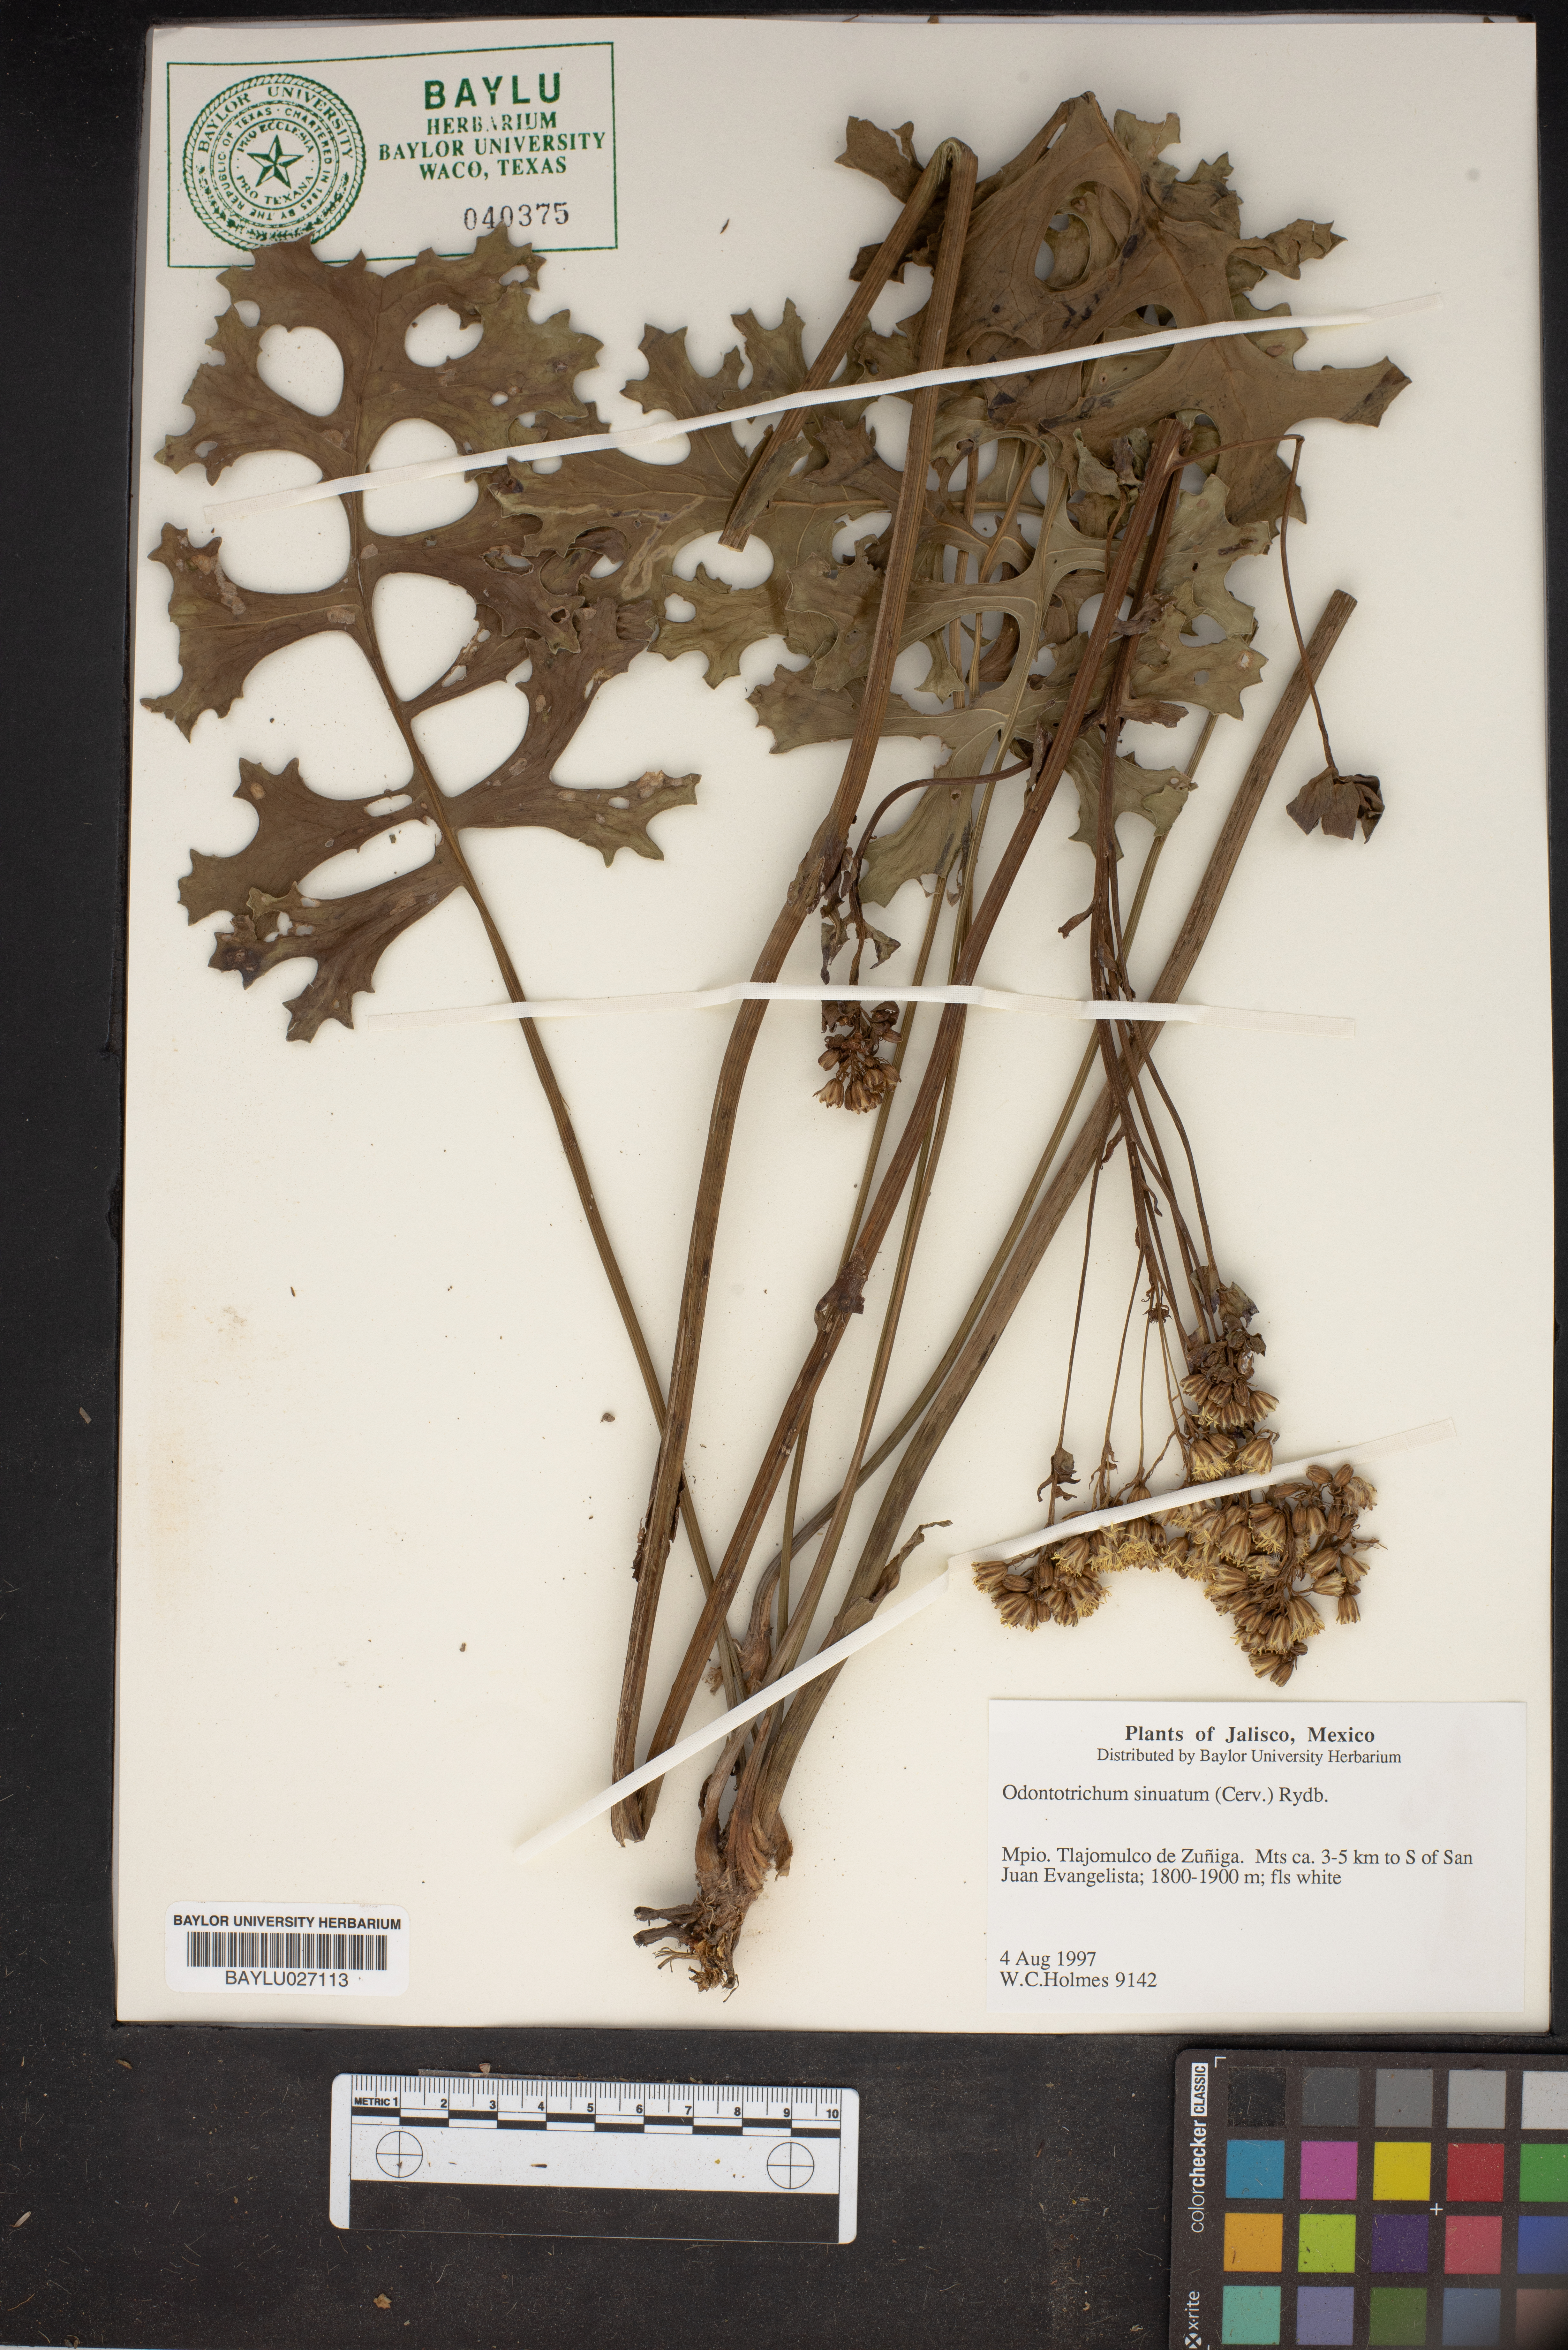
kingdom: Plantae
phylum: Tracheophyta
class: Magnoliopsida
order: Asterales
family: Asteraceae
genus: Psacalium
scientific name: Psacalium sinuatum
